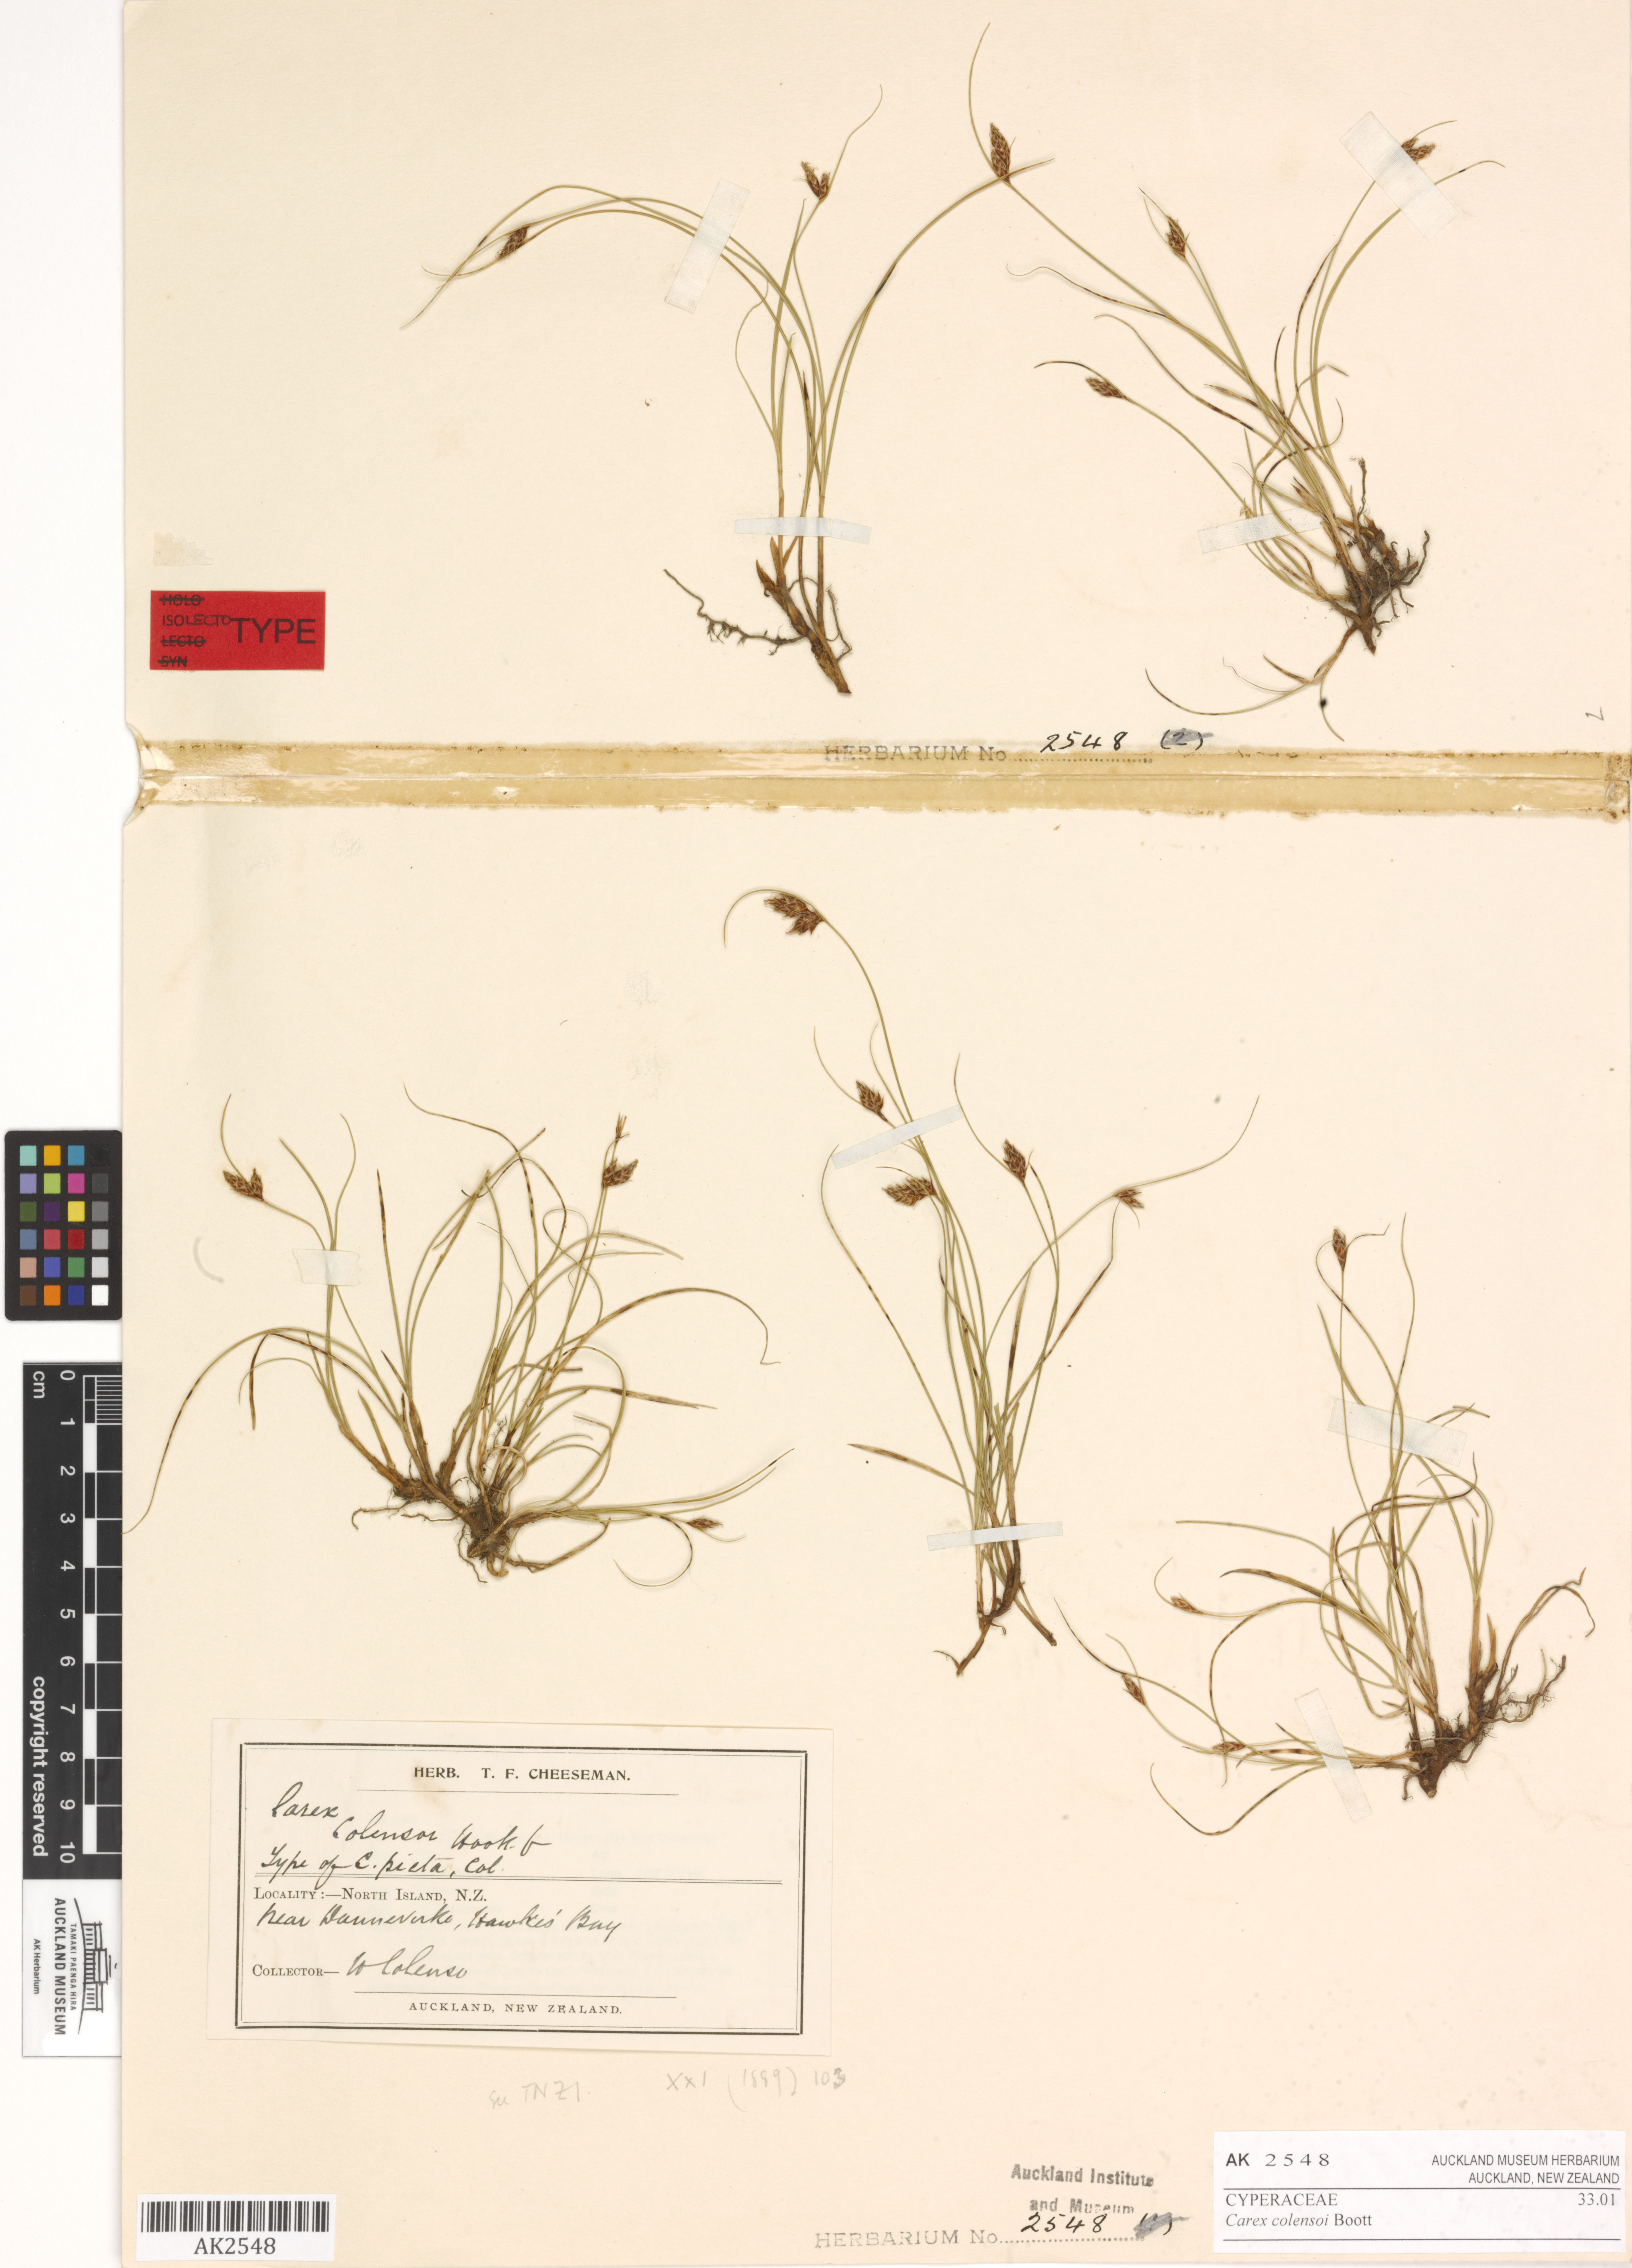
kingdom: Plantae
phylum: Tracheophyta
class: Liliopsida
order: Poales
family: Cyperaceae
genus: Carex
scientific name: Carex colensoi
